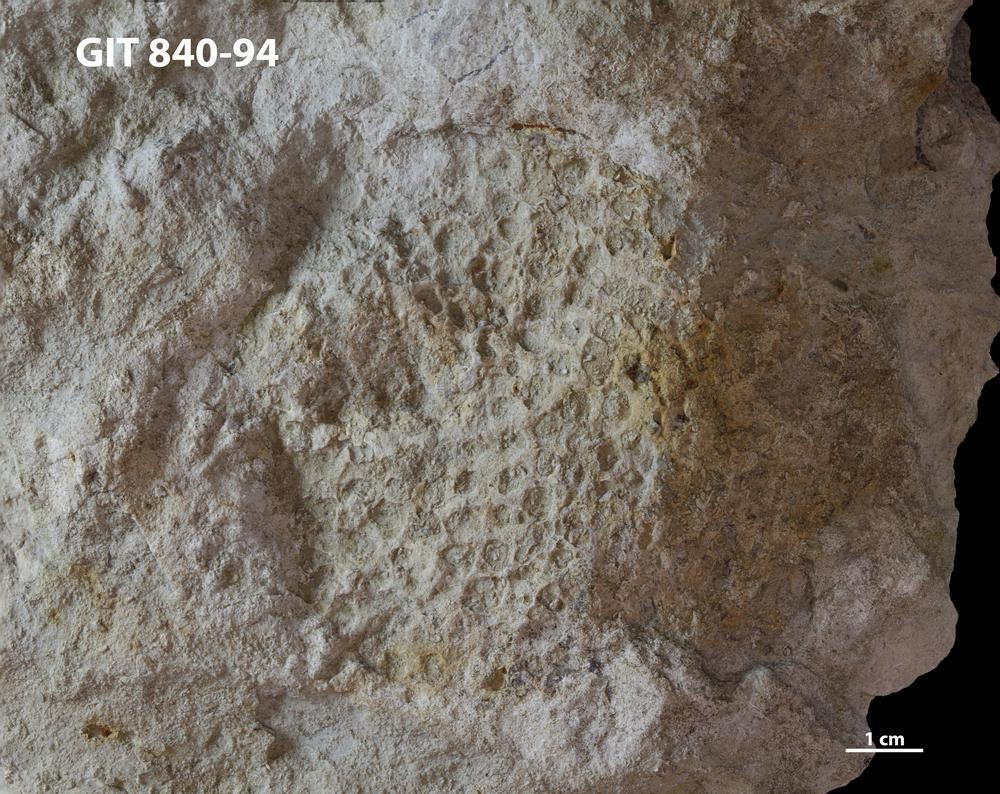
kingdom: Animalia
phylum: Porifera
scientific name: Porifera
